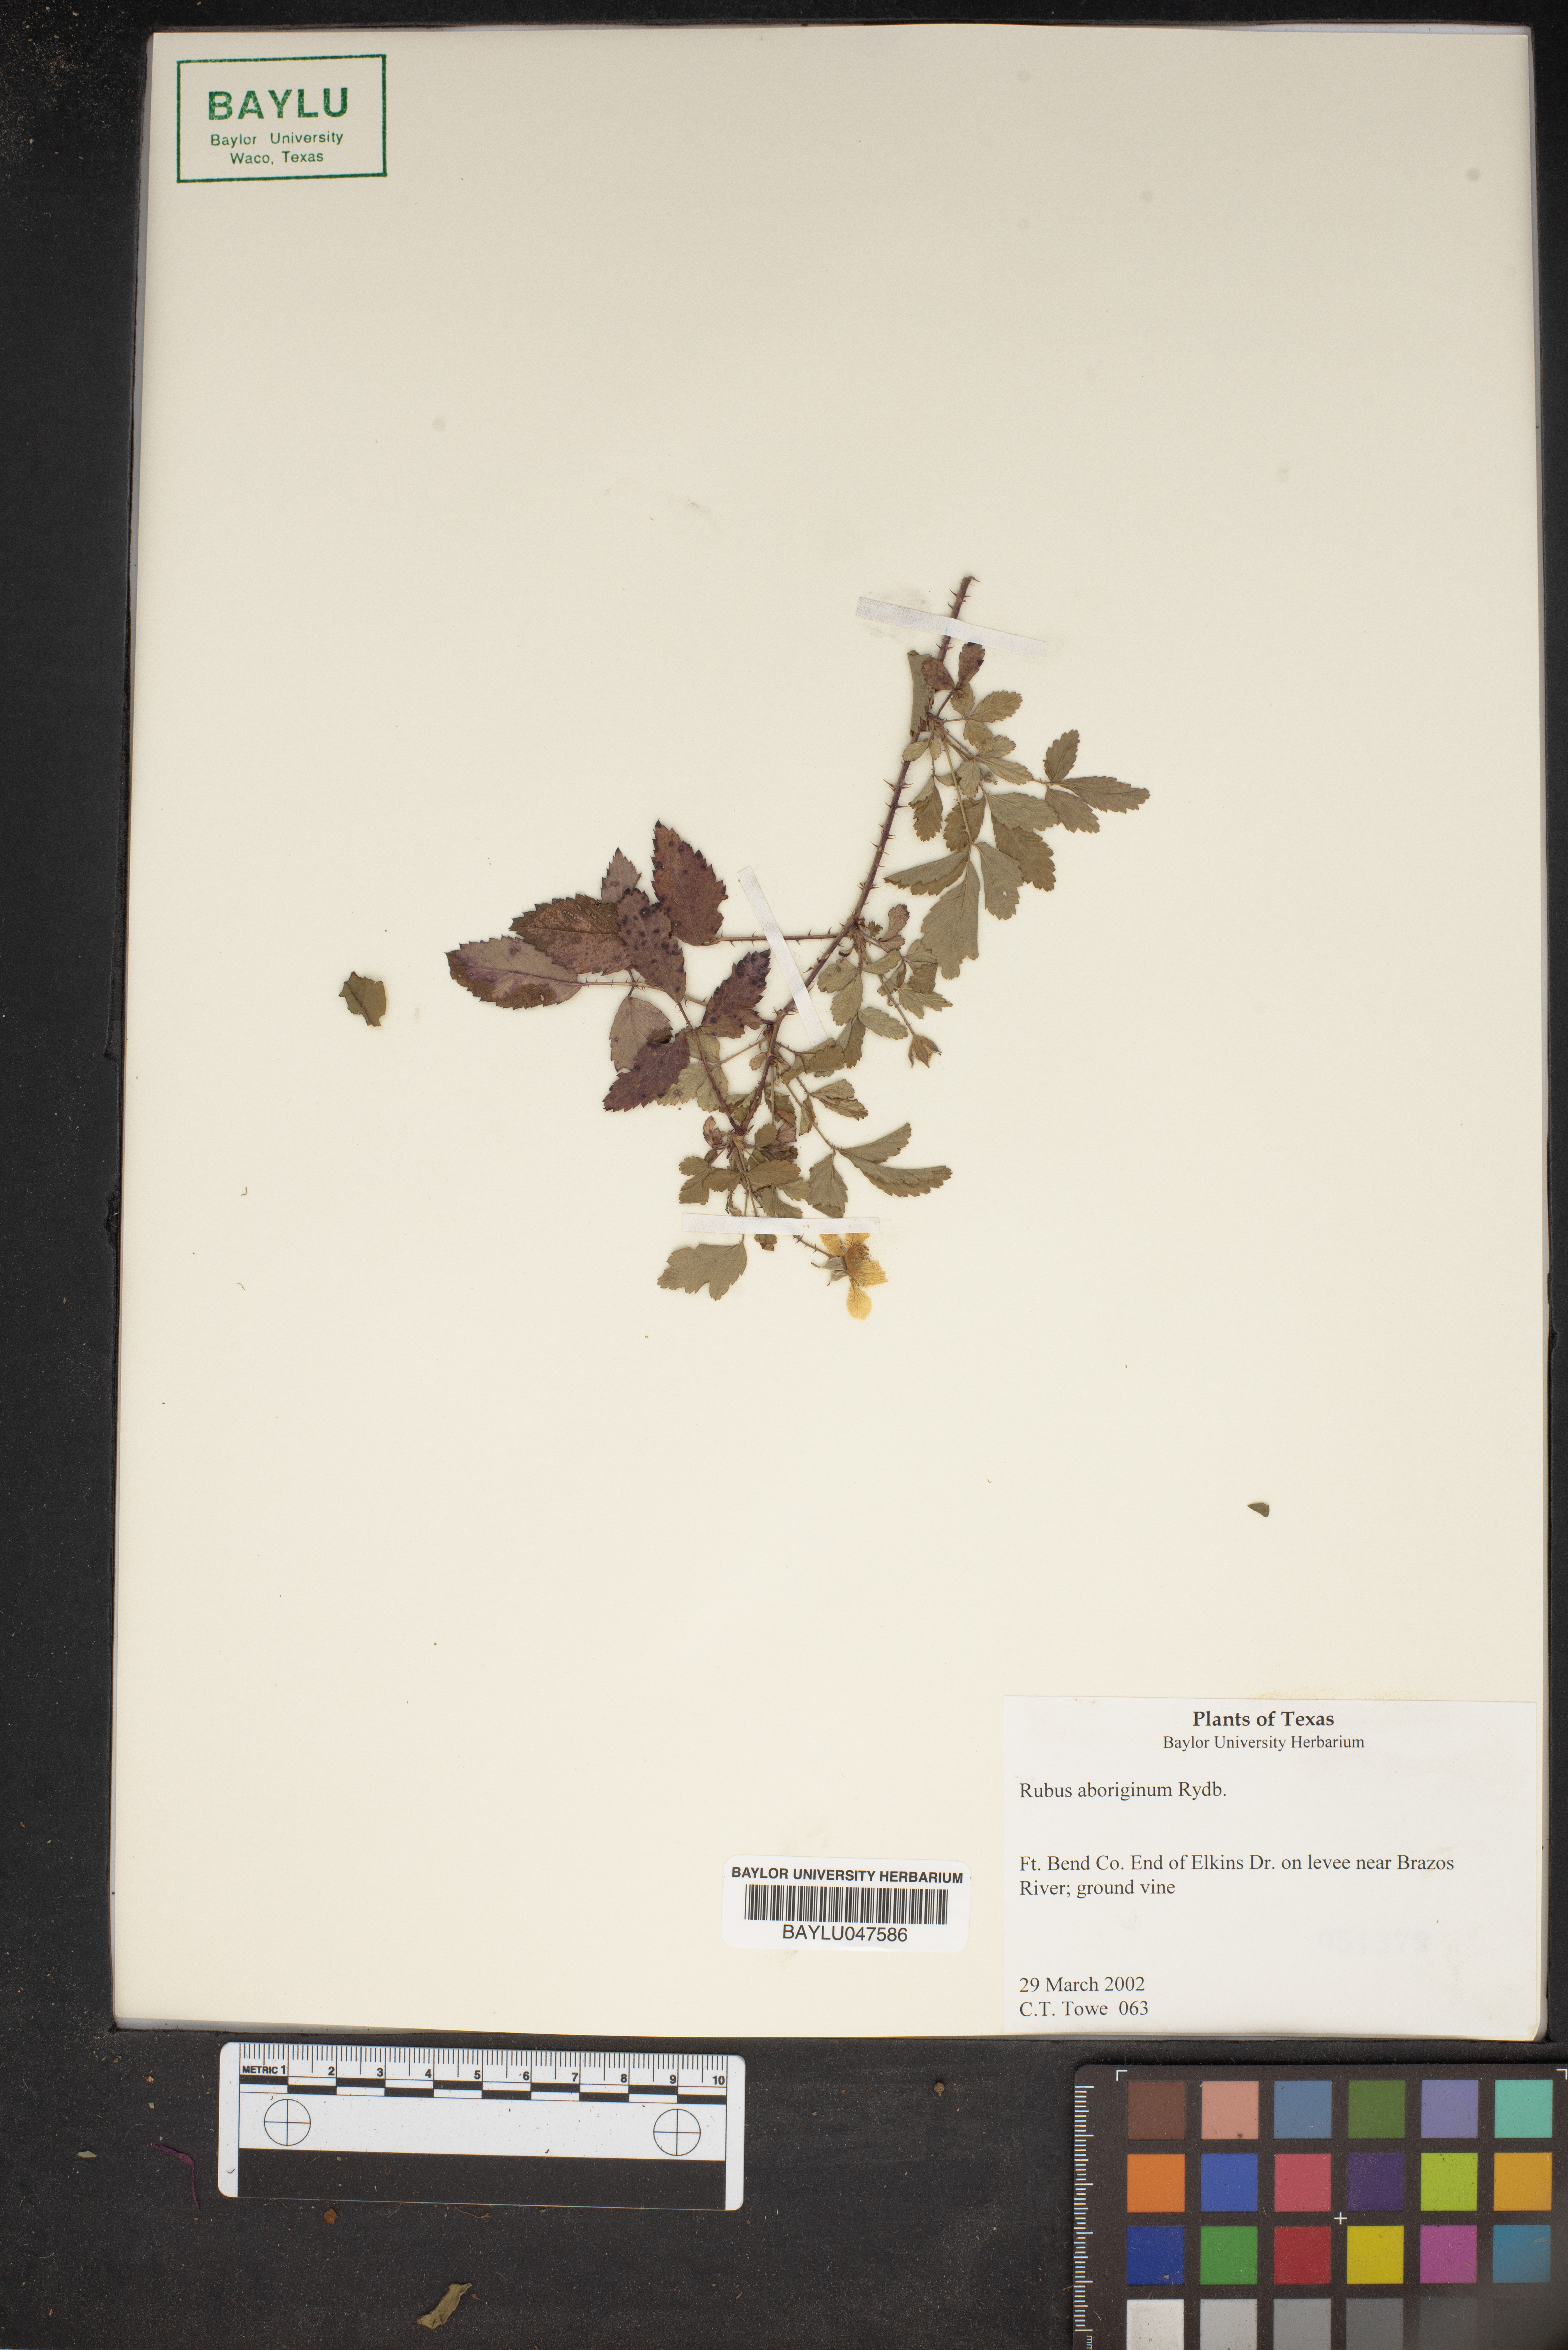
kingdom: Plantae
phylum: Tracheophyta
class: Magnoliopsida
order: Rosales
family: Rosaceae
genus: Rubus
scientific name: Rubus aboriginum
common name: Mayes dewberry
